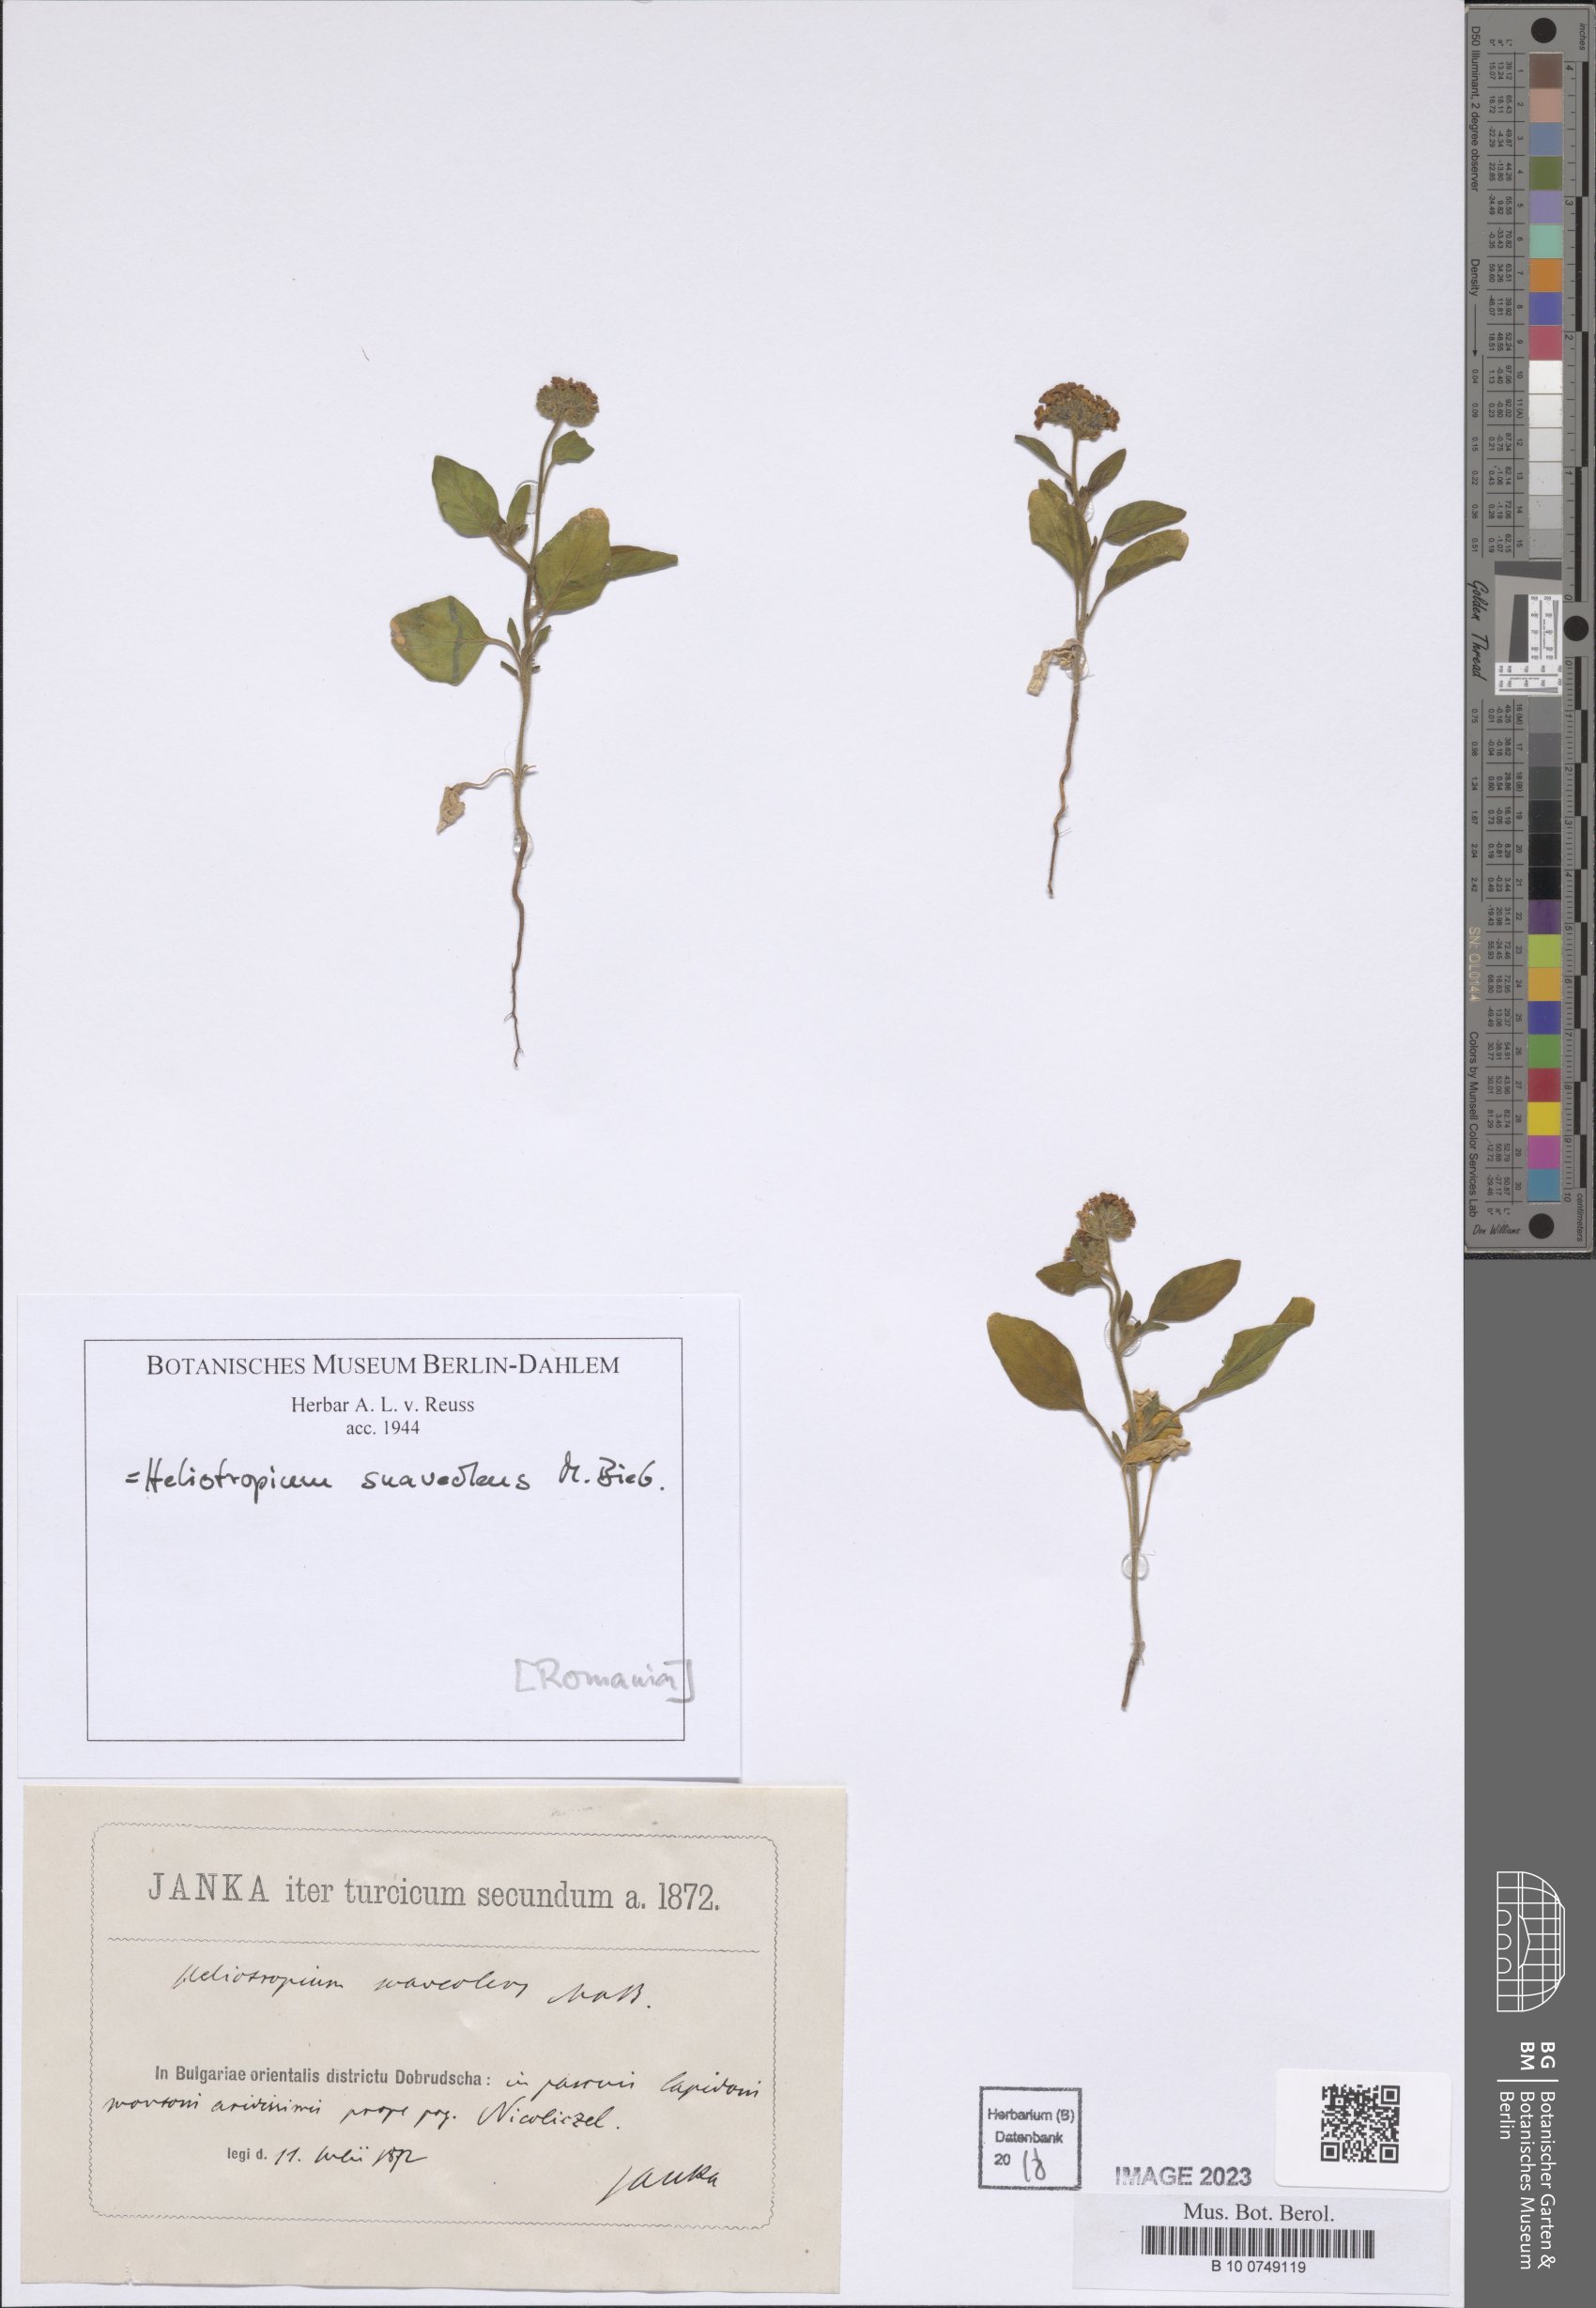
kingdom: Plantae
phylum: Tracheophyta
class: Magnoliopsida
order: Boraginales
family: Heliotropiaceae
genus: Heliotropium
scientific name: Heliotropium suaveolens
